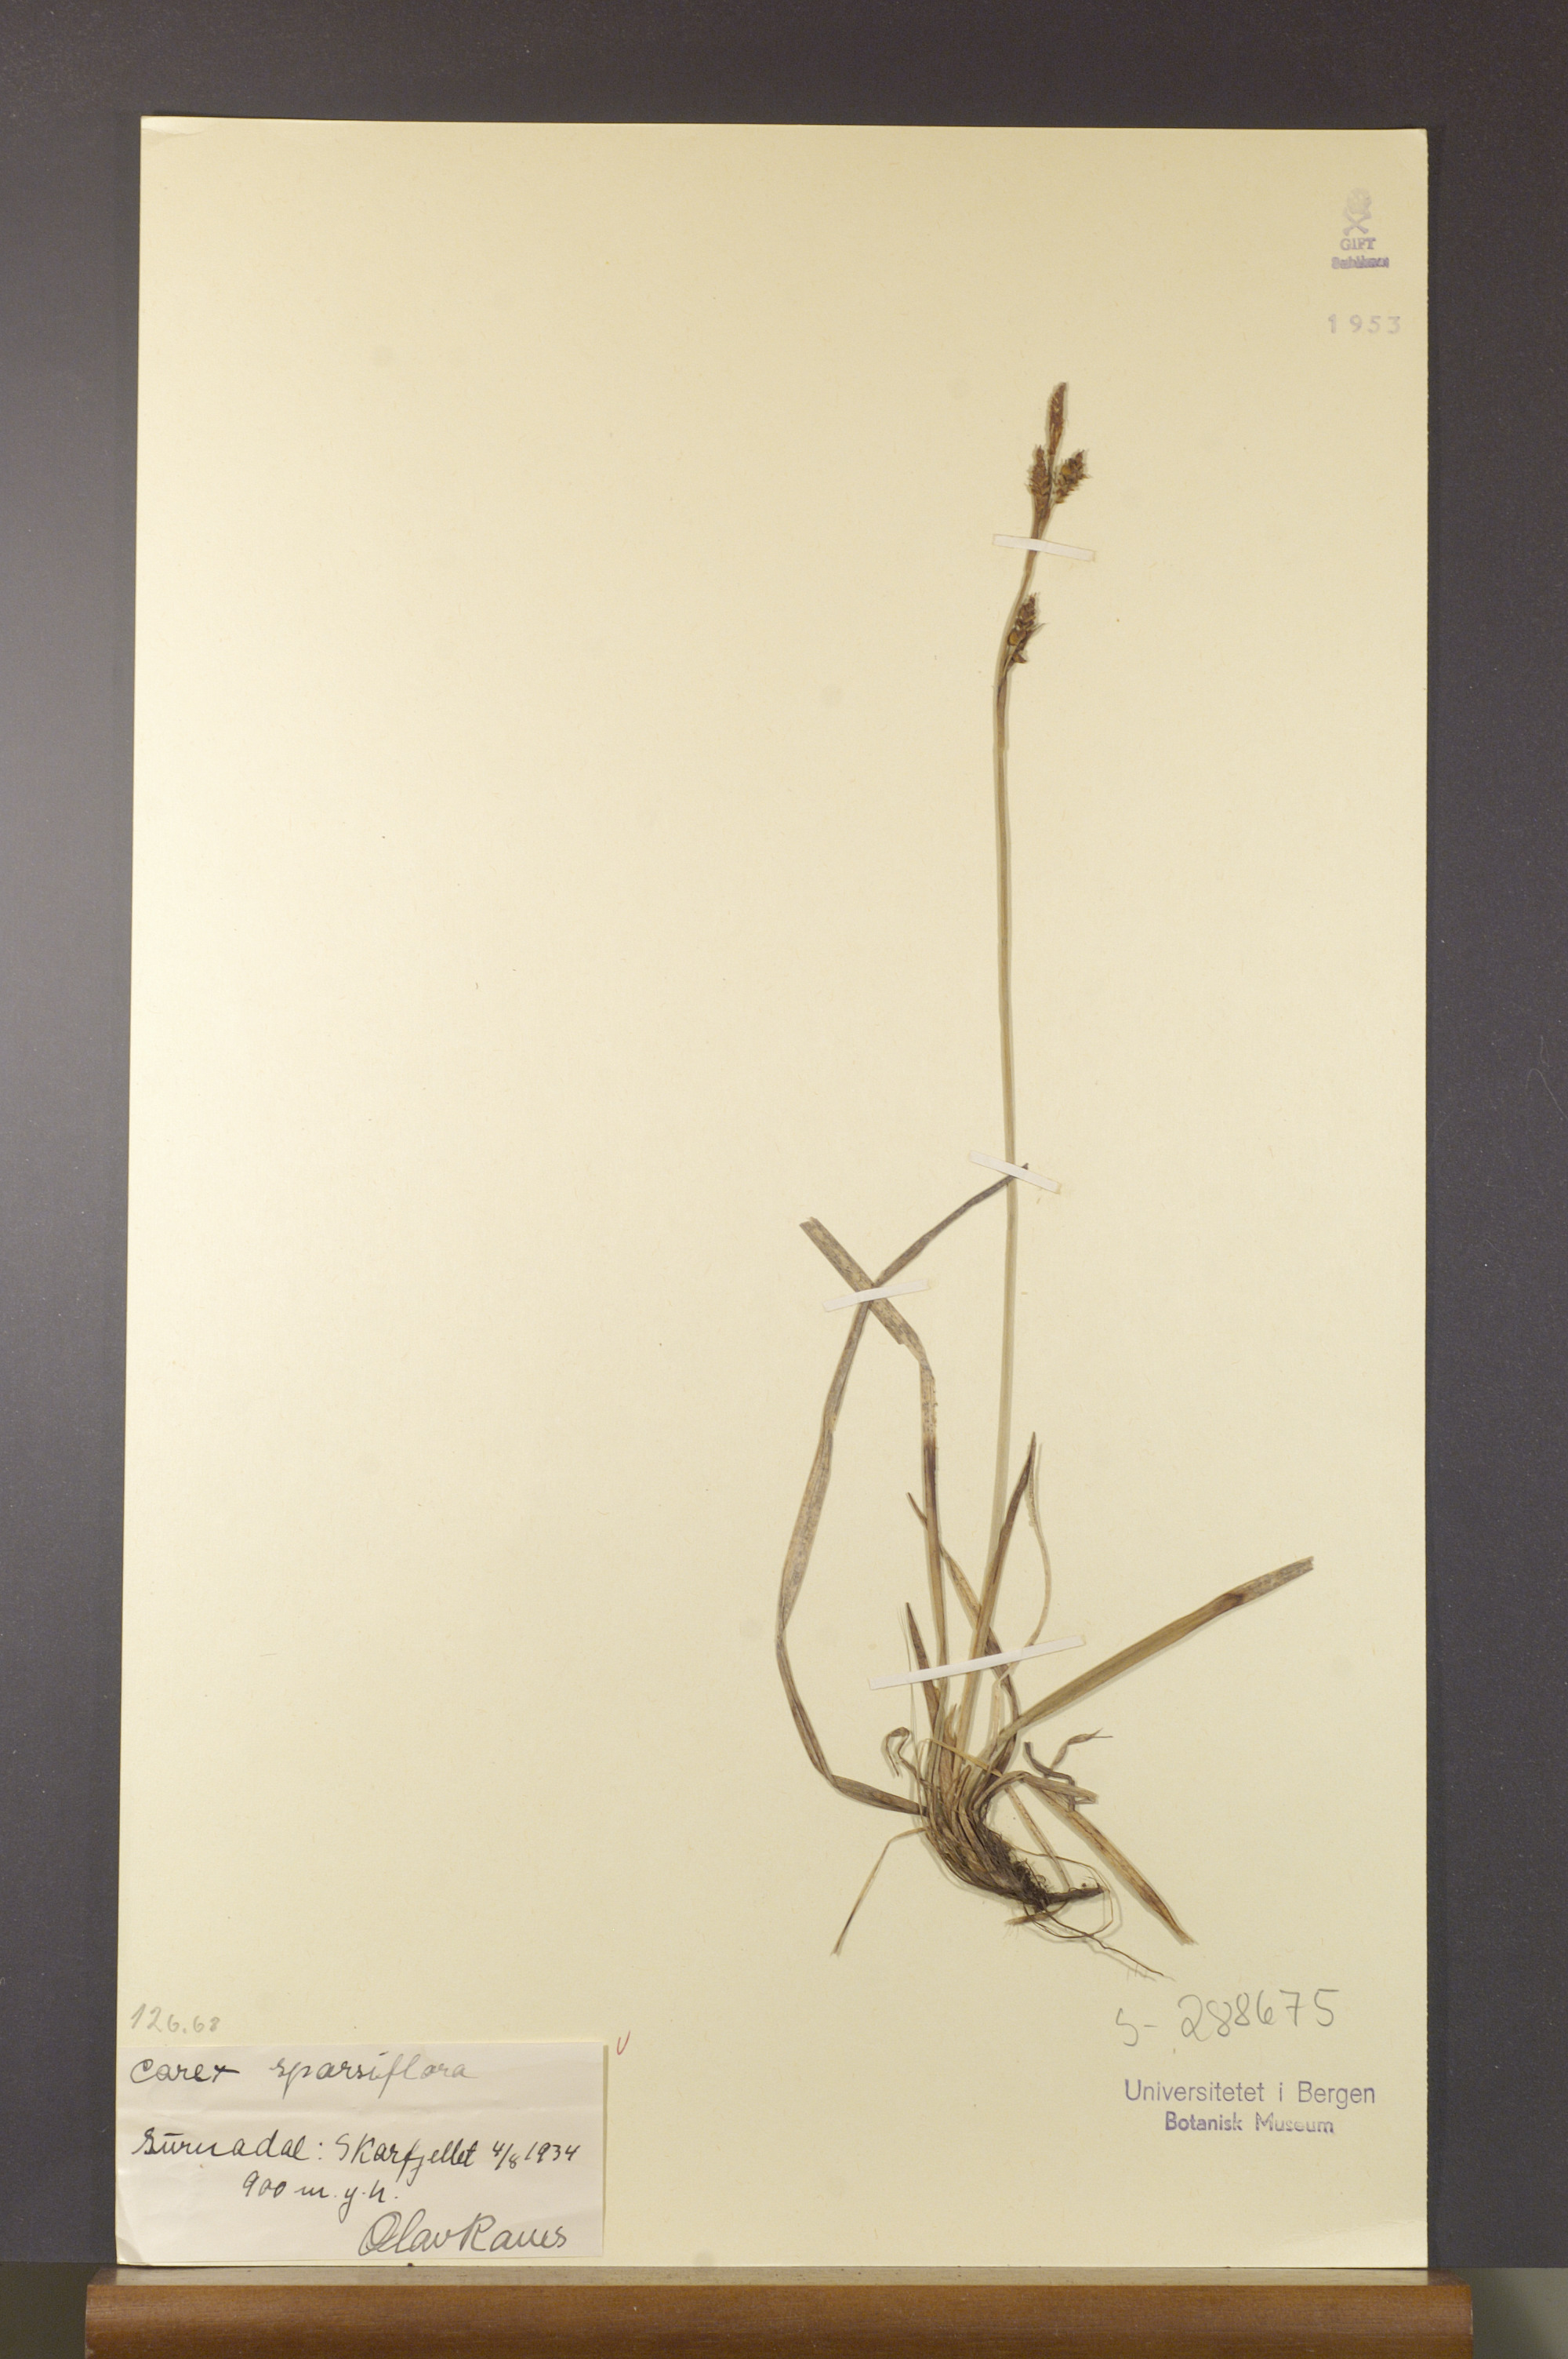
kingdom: Plantae
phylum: Tracheophyta
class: Liliopsida
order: Poales
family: Cyperaceae
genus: Carex
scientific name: Carex vaginata
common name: Sheathed sedge
